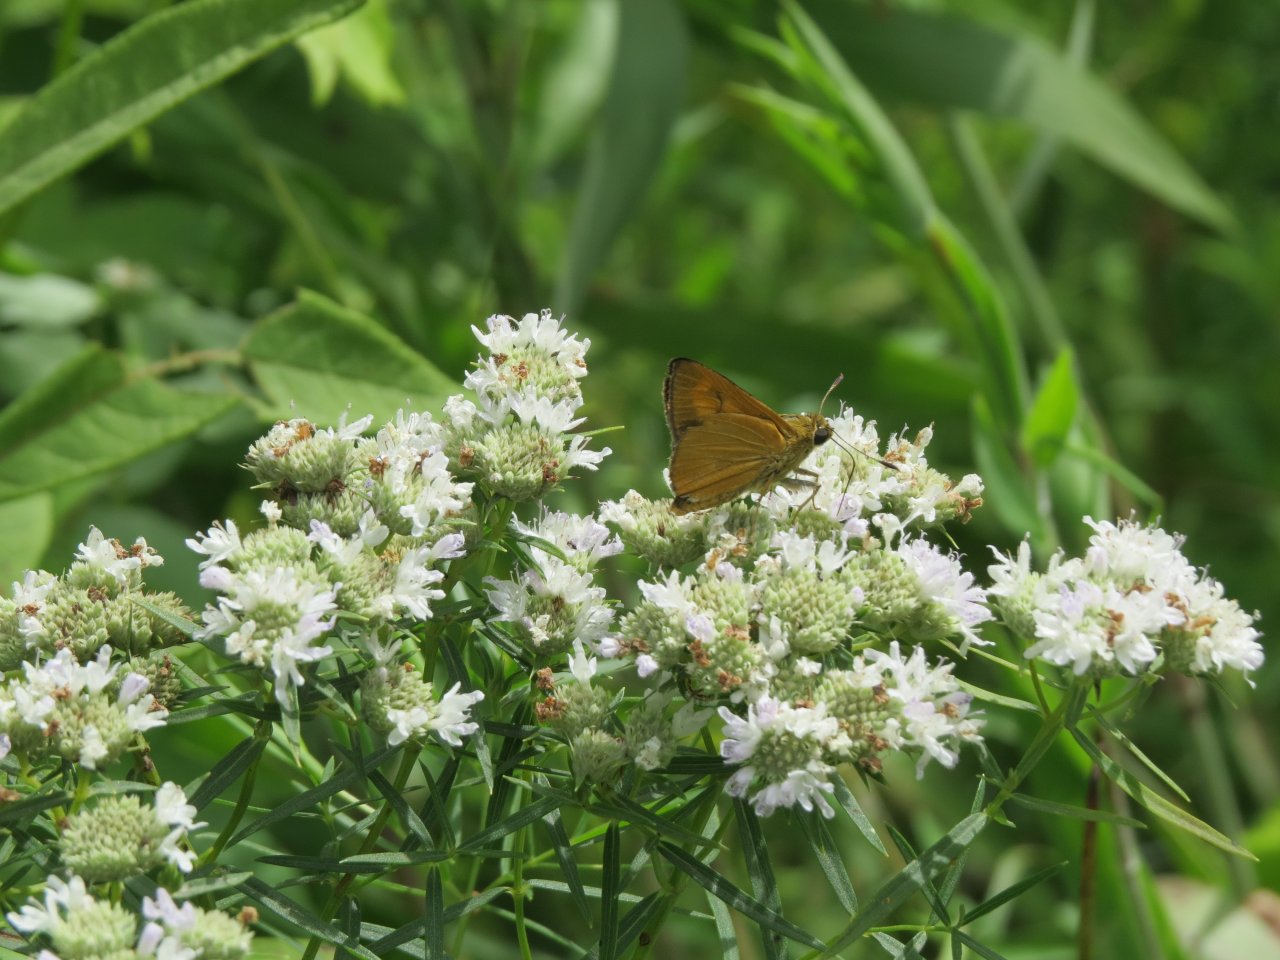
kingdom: Animalia
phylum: Arthropoda
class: Insecta
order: Lepidoptera
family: Hesperiidae
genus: Problema
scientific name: Problema byssus
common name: Byssus Skipper
